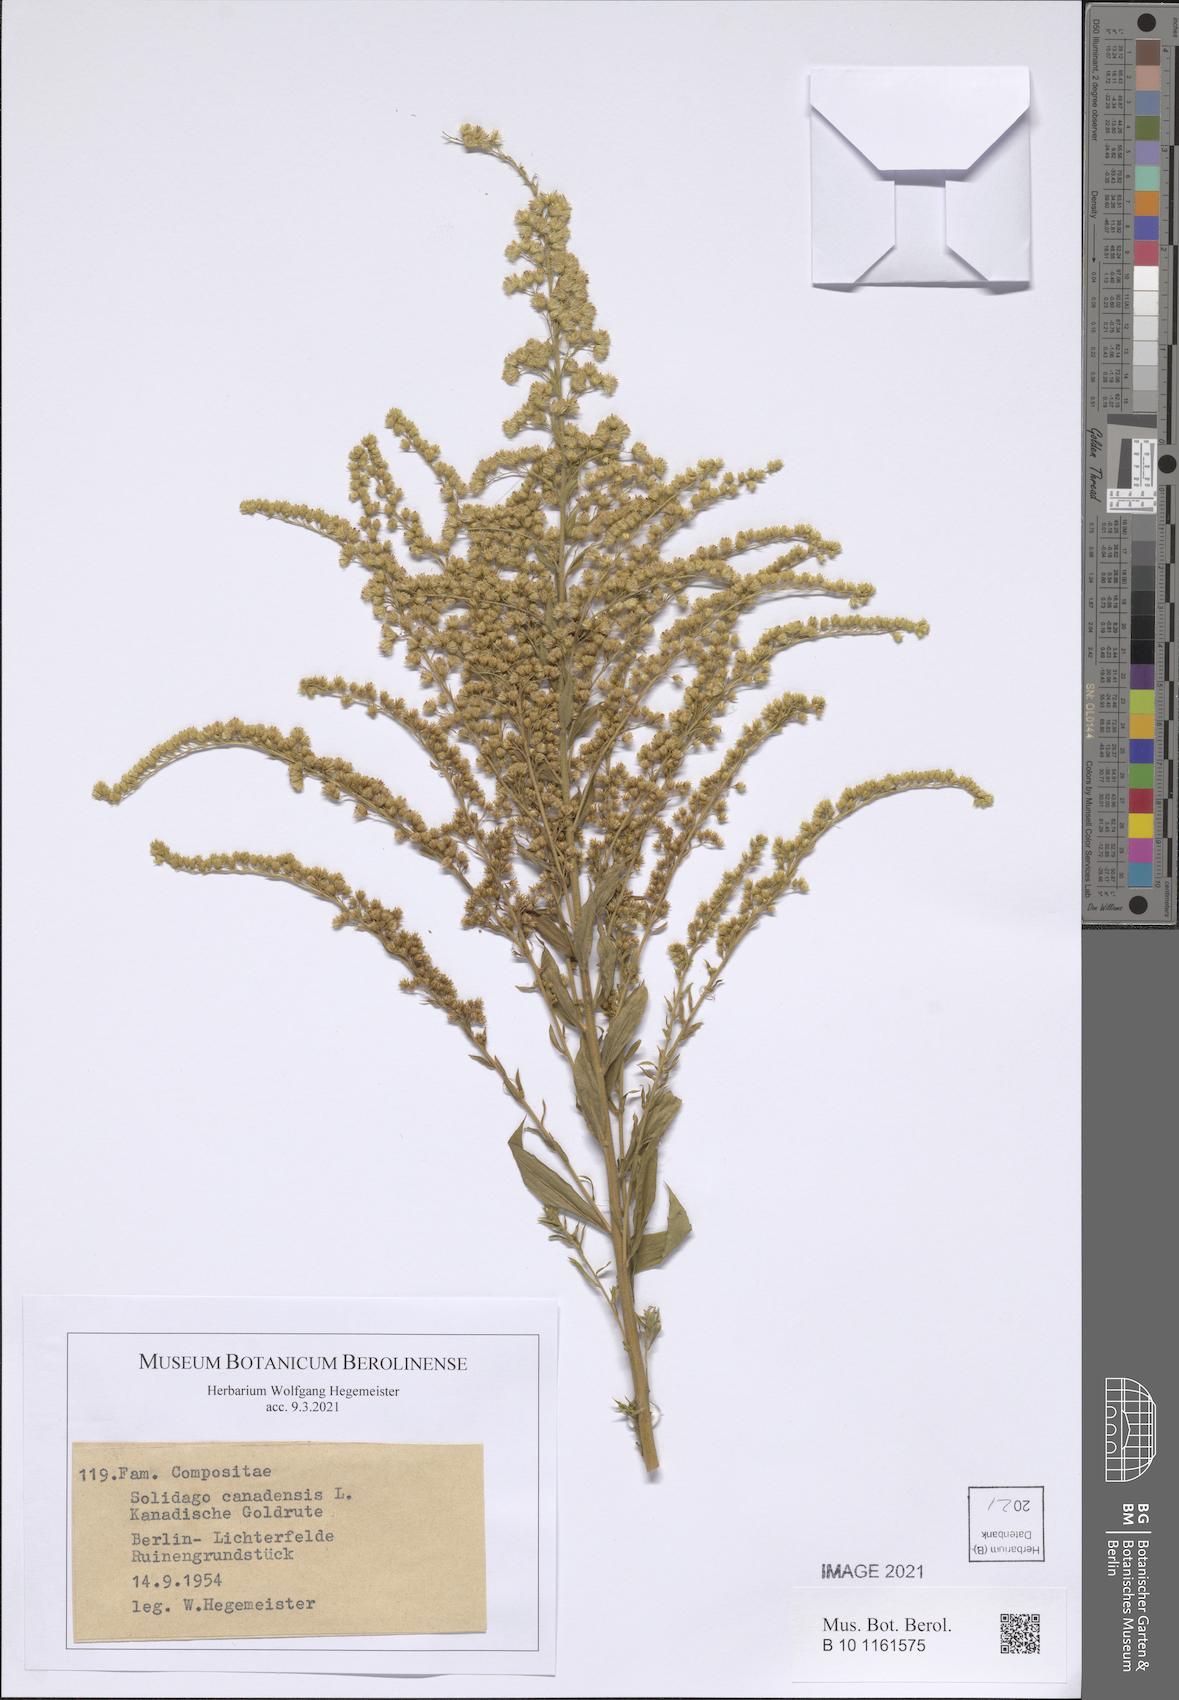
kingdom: Plantae
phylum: Tracheophyta
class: Magnoliopsida
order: Asterales
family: Asteraceae
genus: Solidago
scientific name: Solidago canadensis
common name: Canada goldenrod
